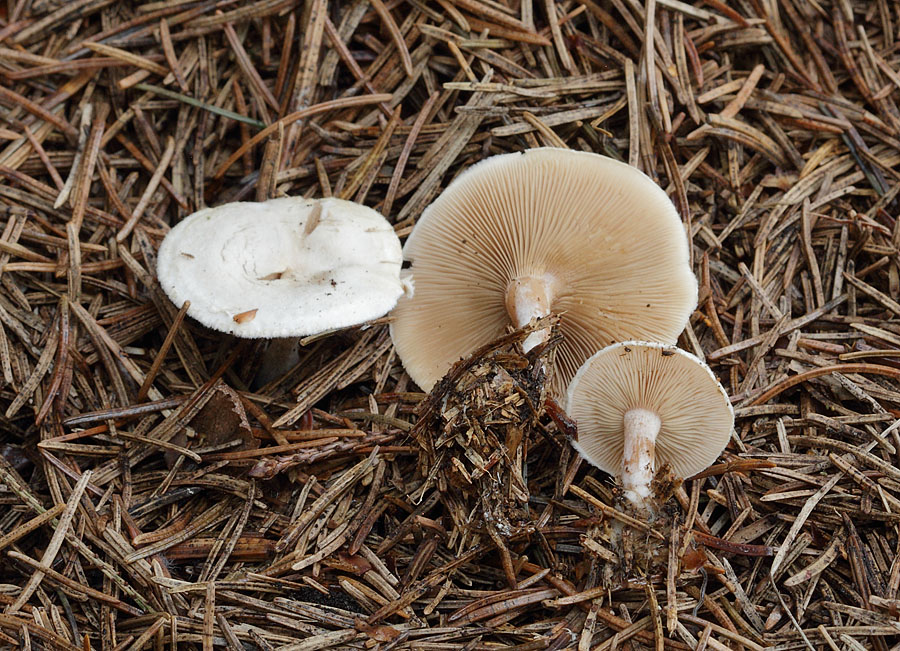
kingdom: Fungi
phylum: Basidiomycota
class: Agaricomycetes
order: Agaricales
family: Tricholomataceae
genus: Ripartites
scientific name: Ripartites tricholoma
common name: almindelig skæghat
